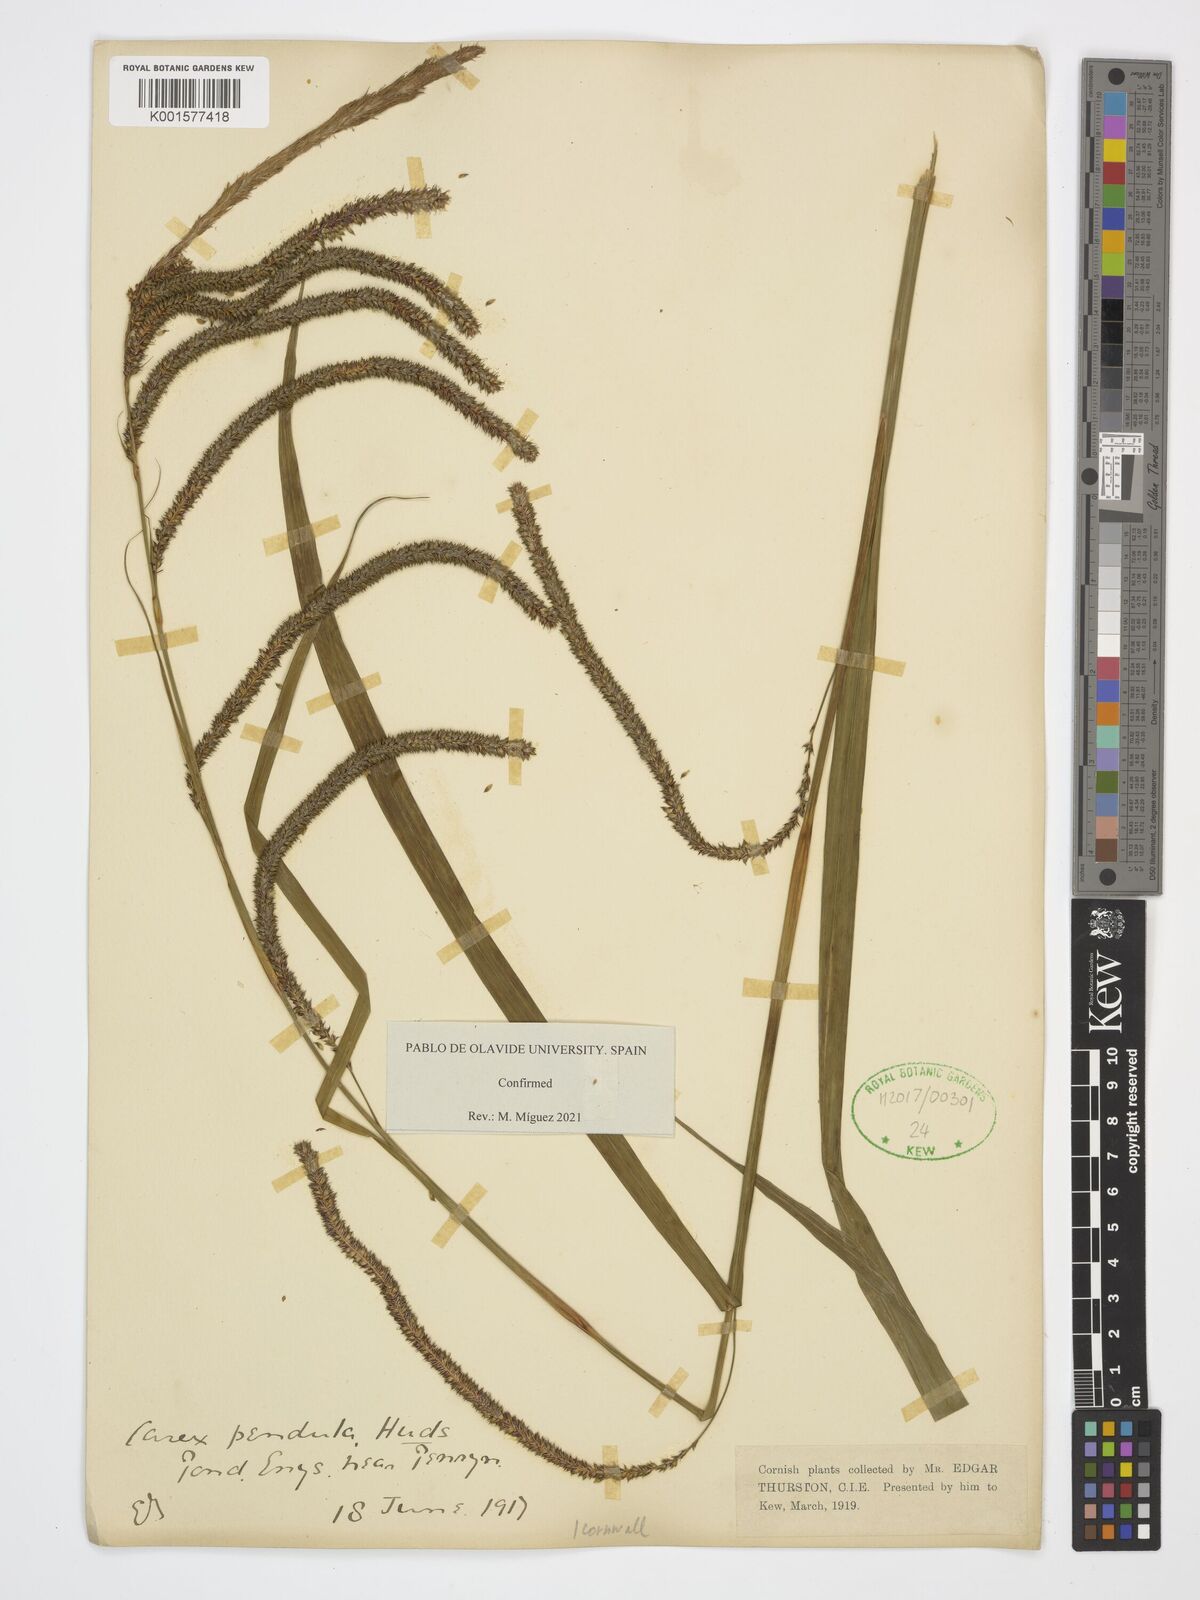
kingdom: Plantae
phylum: Tracheophyta
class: Liliopsida
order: Poales
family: Cyperaceae
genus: Carex
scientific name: Carex pendula
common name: Pendulous sedge
